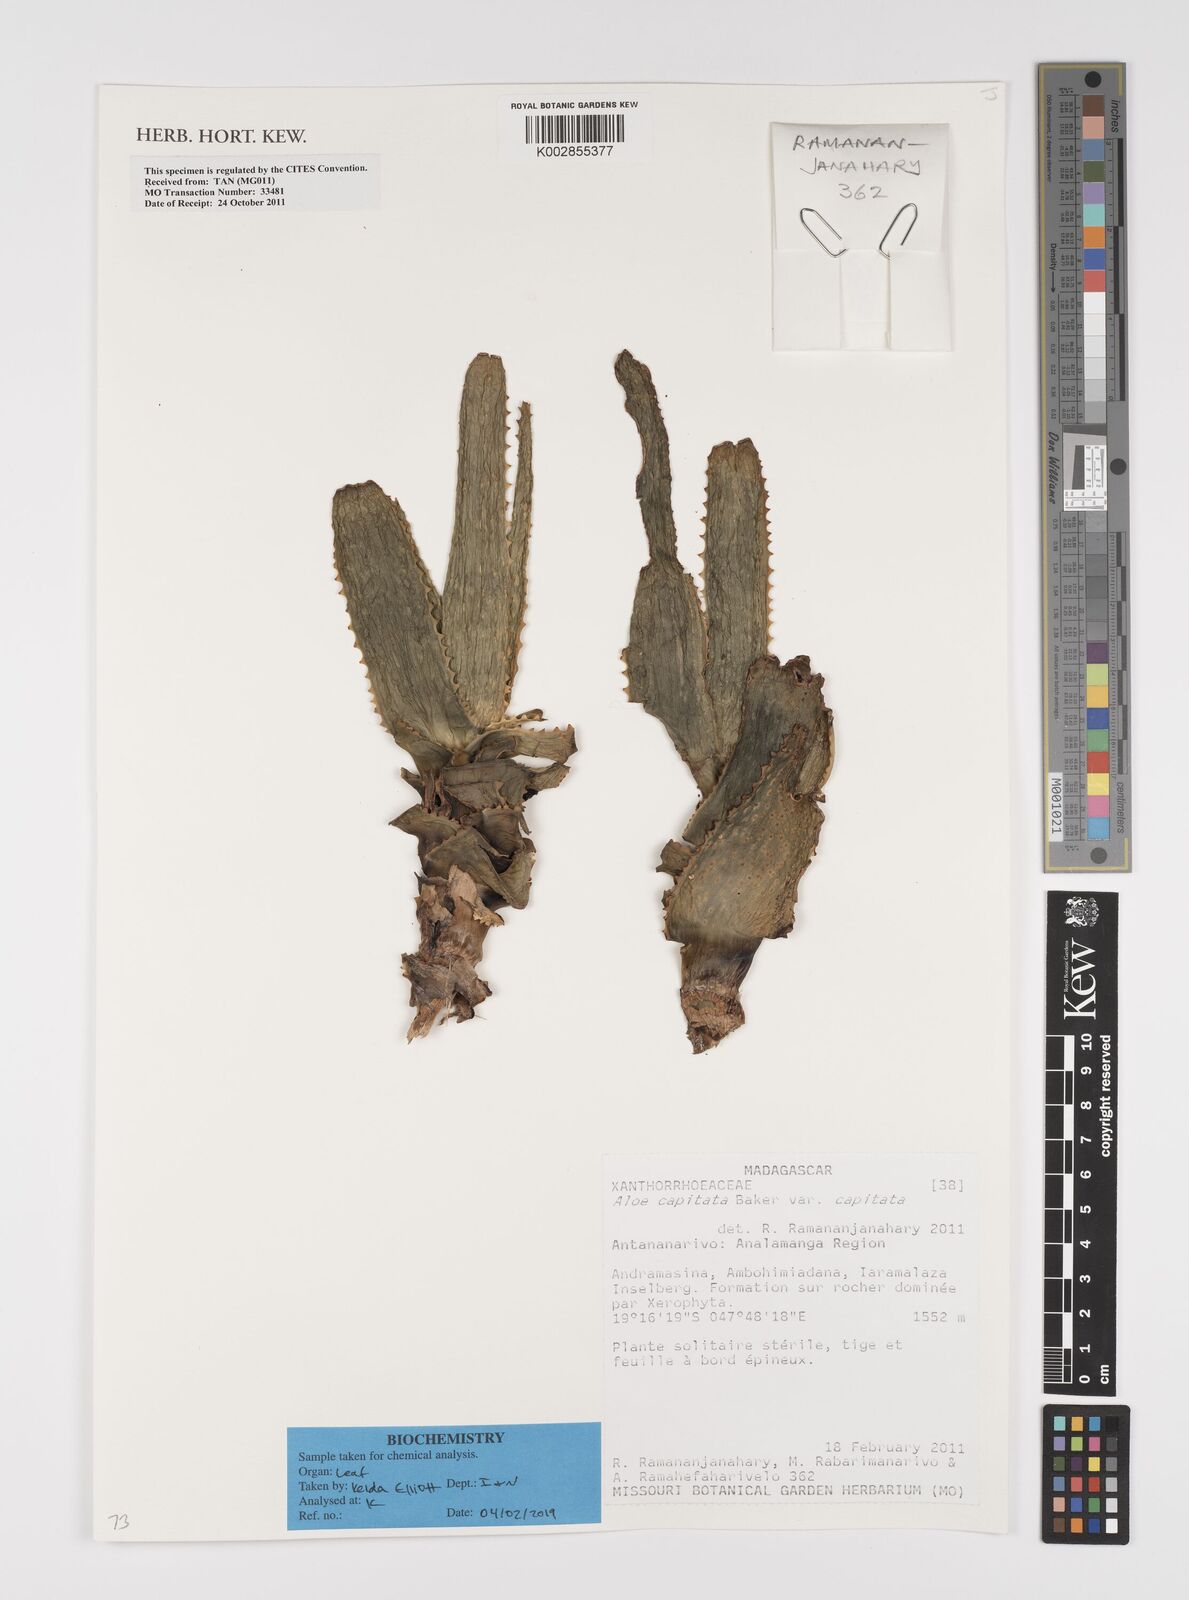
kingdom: Plantae
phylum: Tracheophyta
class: Liliopsida
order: Asparagales
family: Asphodelaceae
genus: Aloe
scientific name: Aloe capitata
